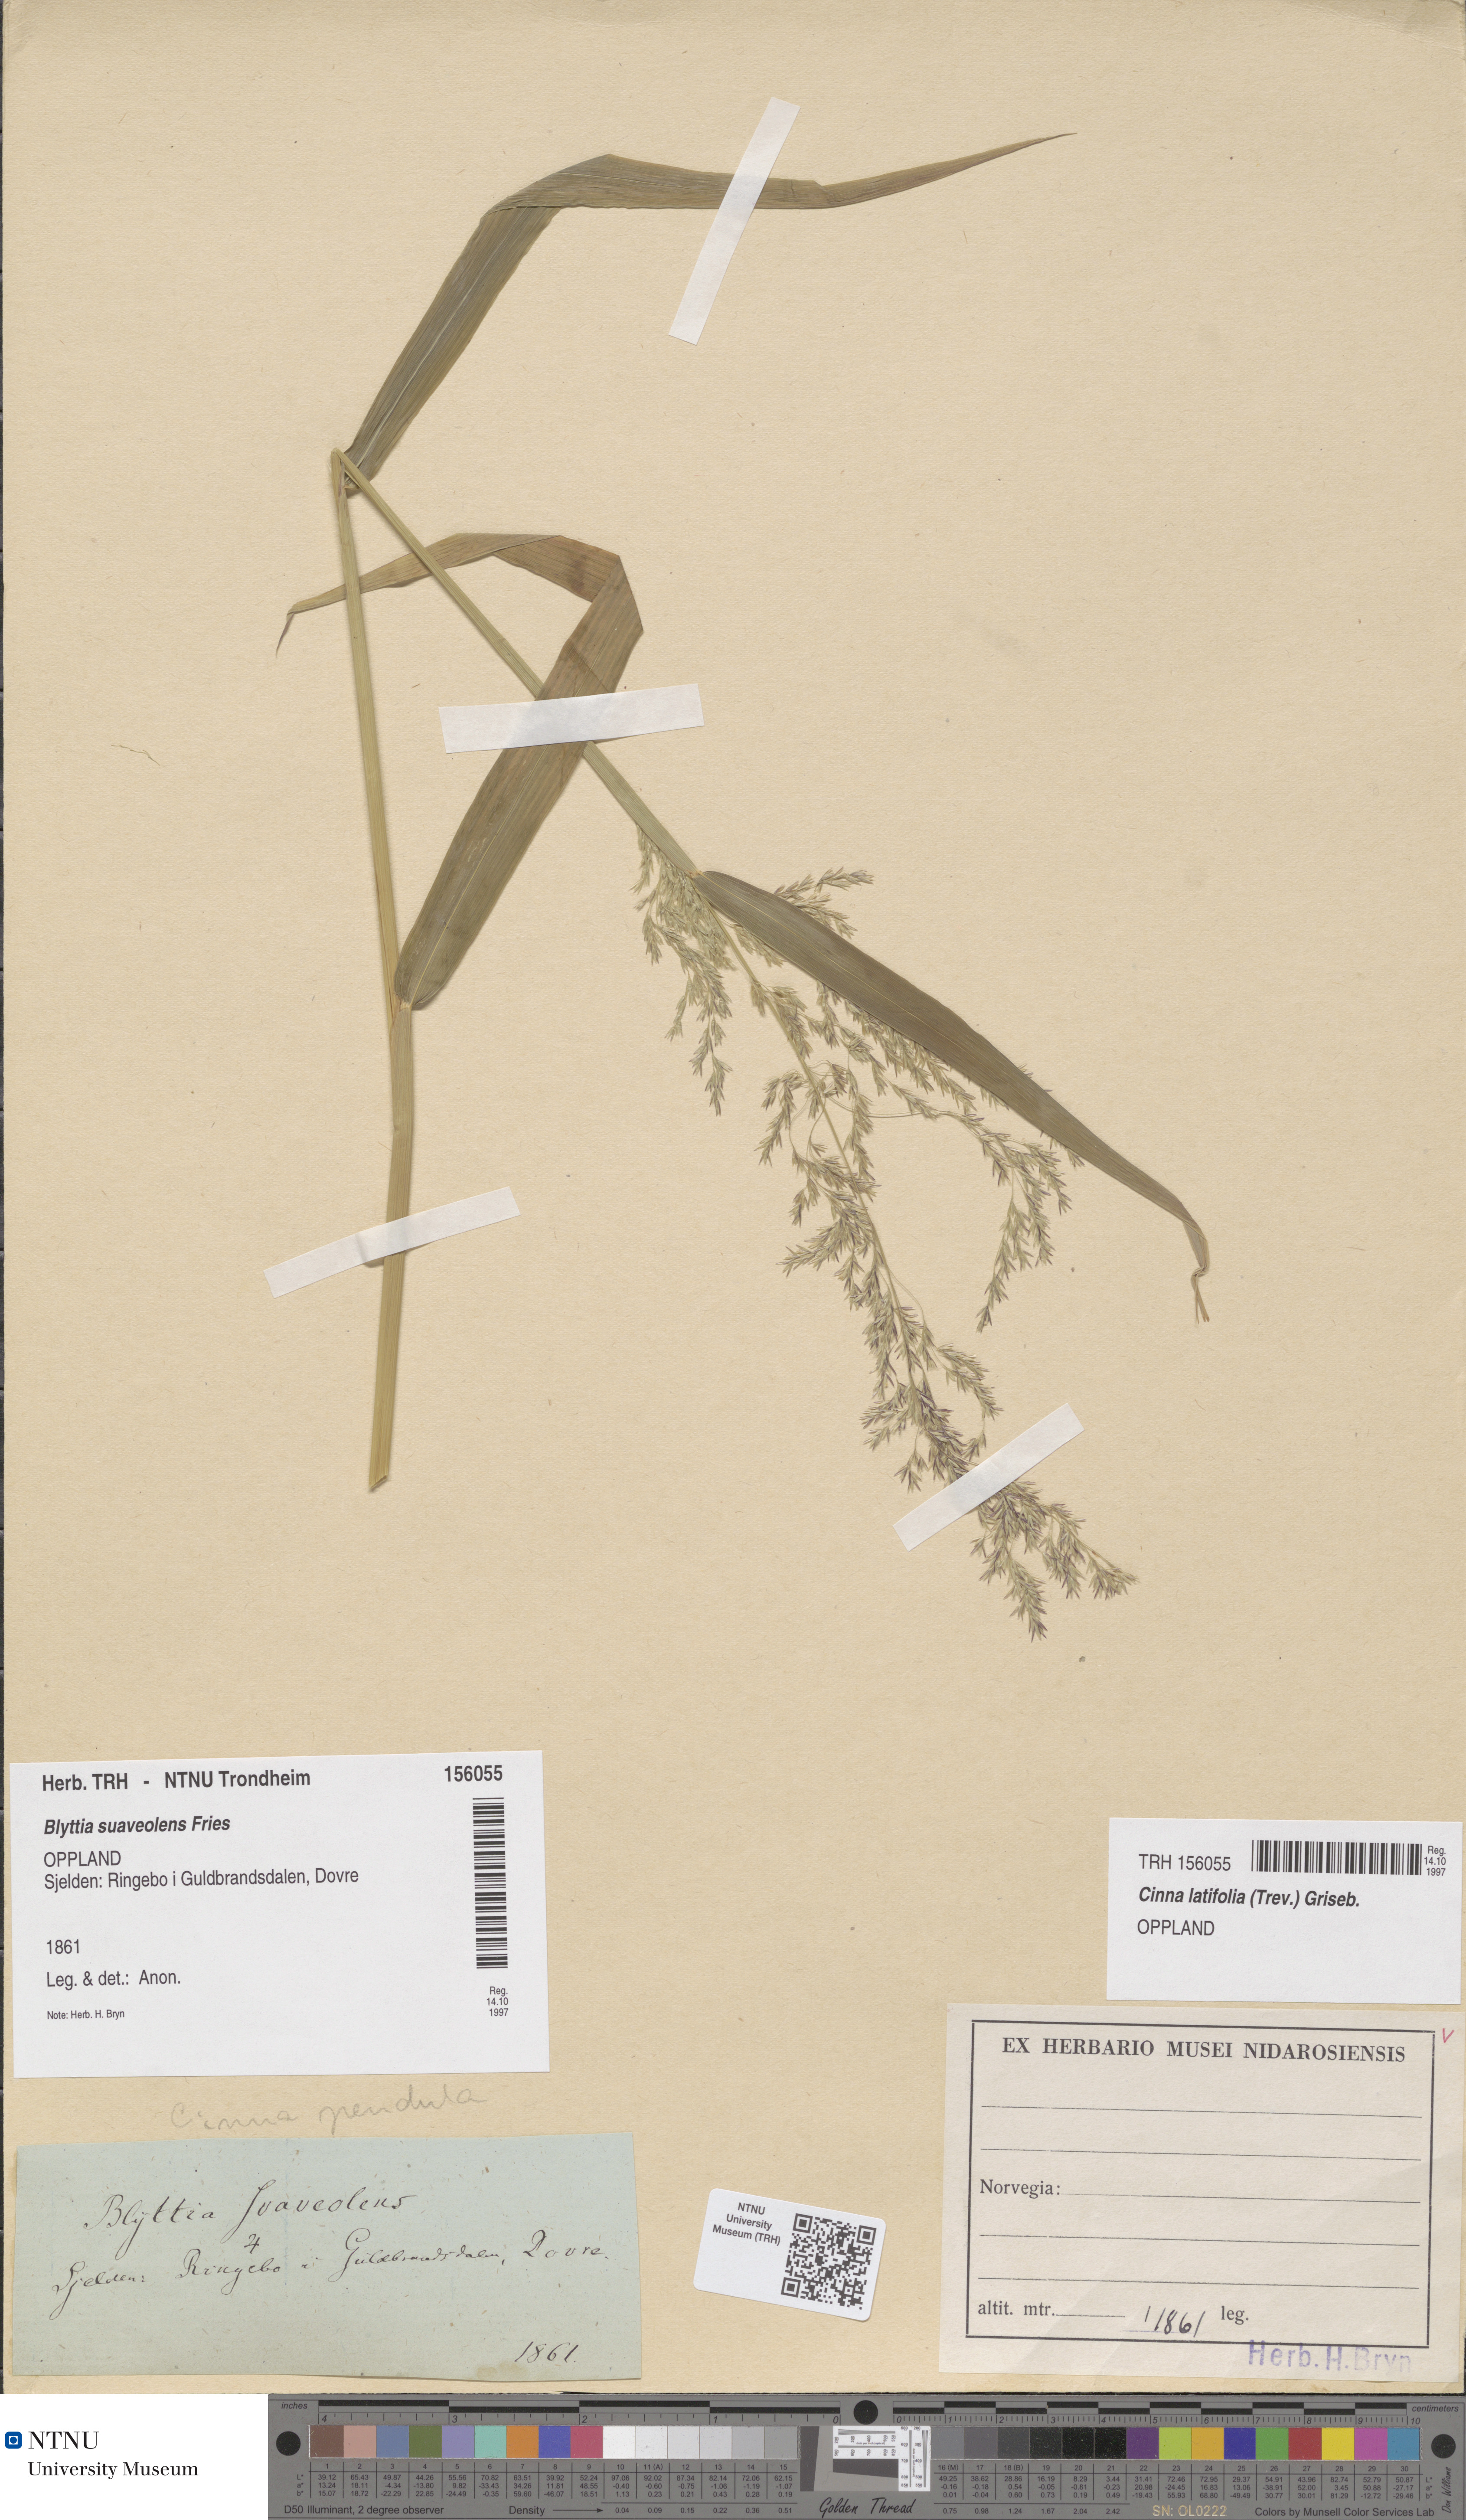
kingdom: Plantae
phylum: Tracheophyta
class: Liliopsida
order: Poales
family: Poaceae
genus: Cinna
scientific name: Cinna latifolia
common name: Drooping woodreed
